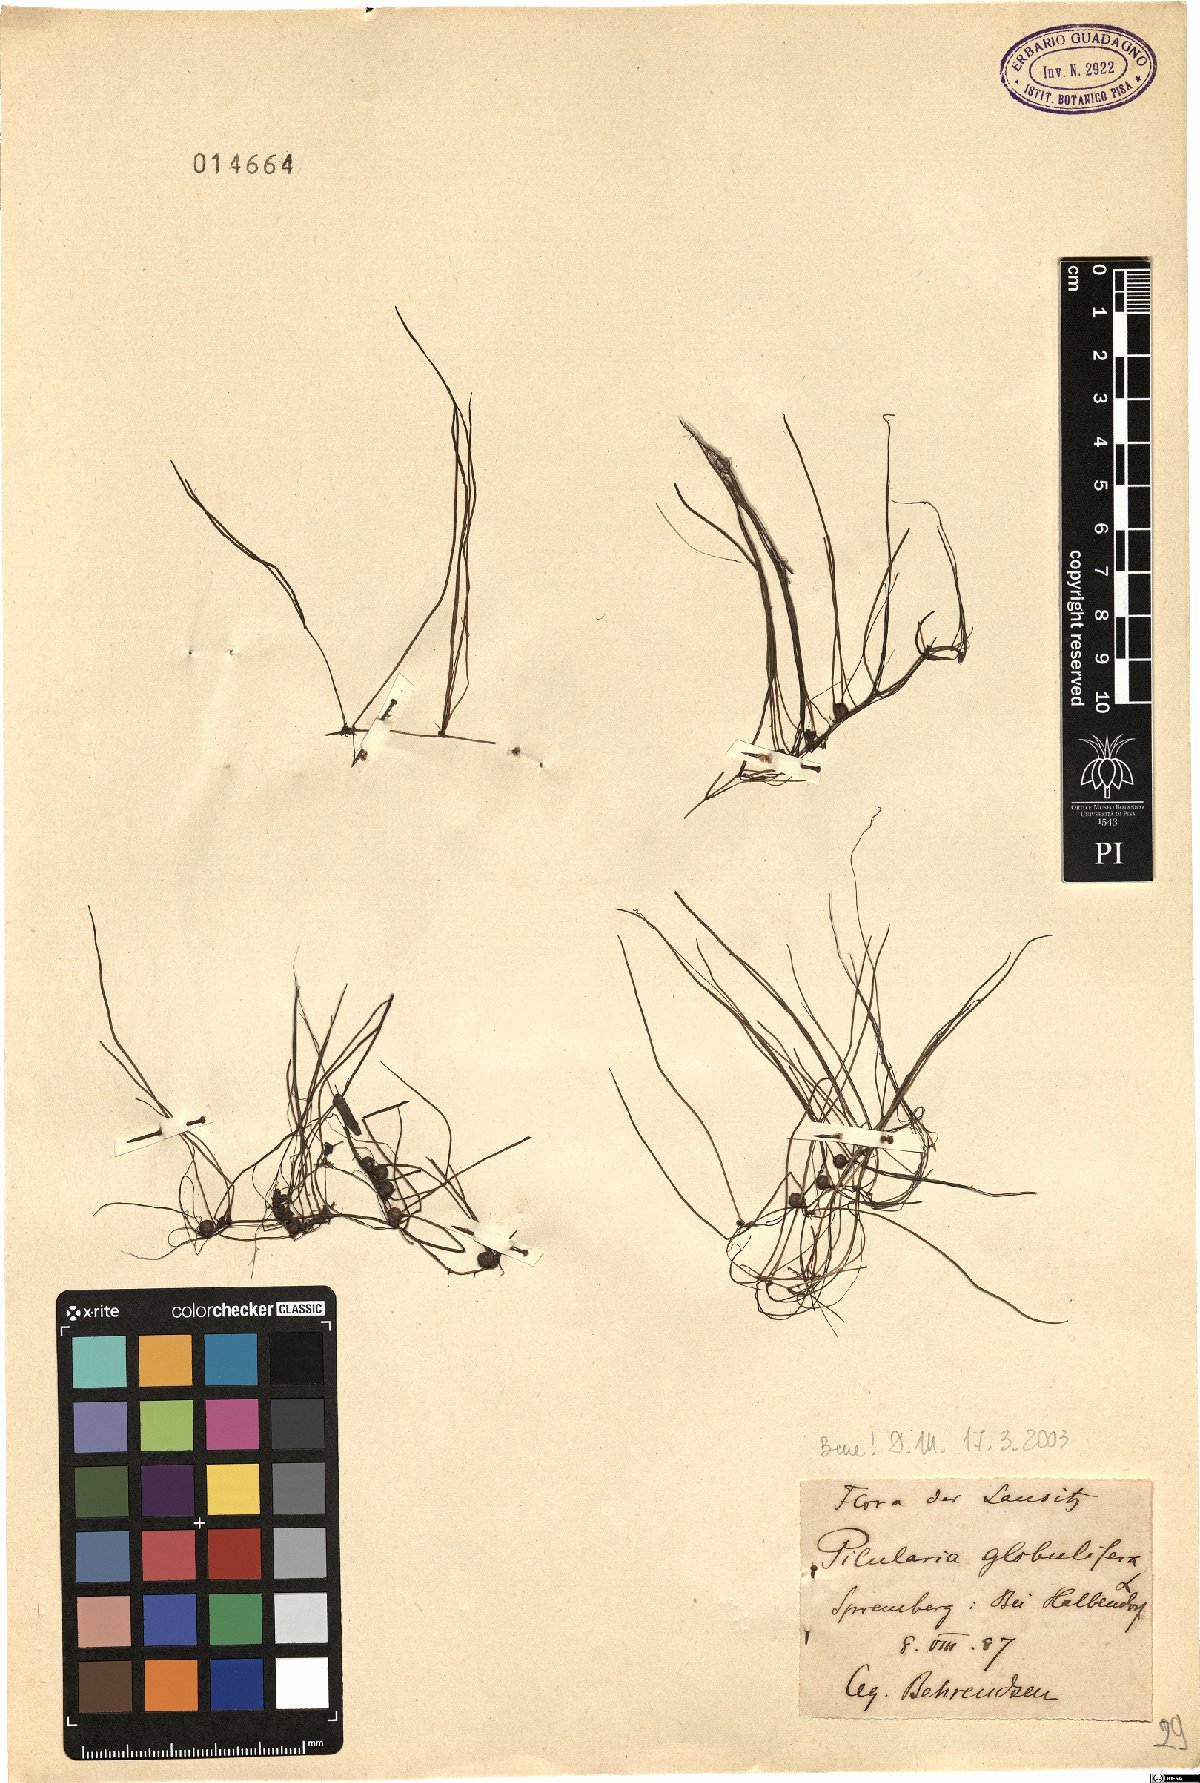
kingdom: Plantae
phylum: Tracheophyta
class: Polypodiopsida
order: Salviniales
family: Marsileaceae
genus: Pilularia
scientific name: Pilularia globulifera
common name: Pillwort
